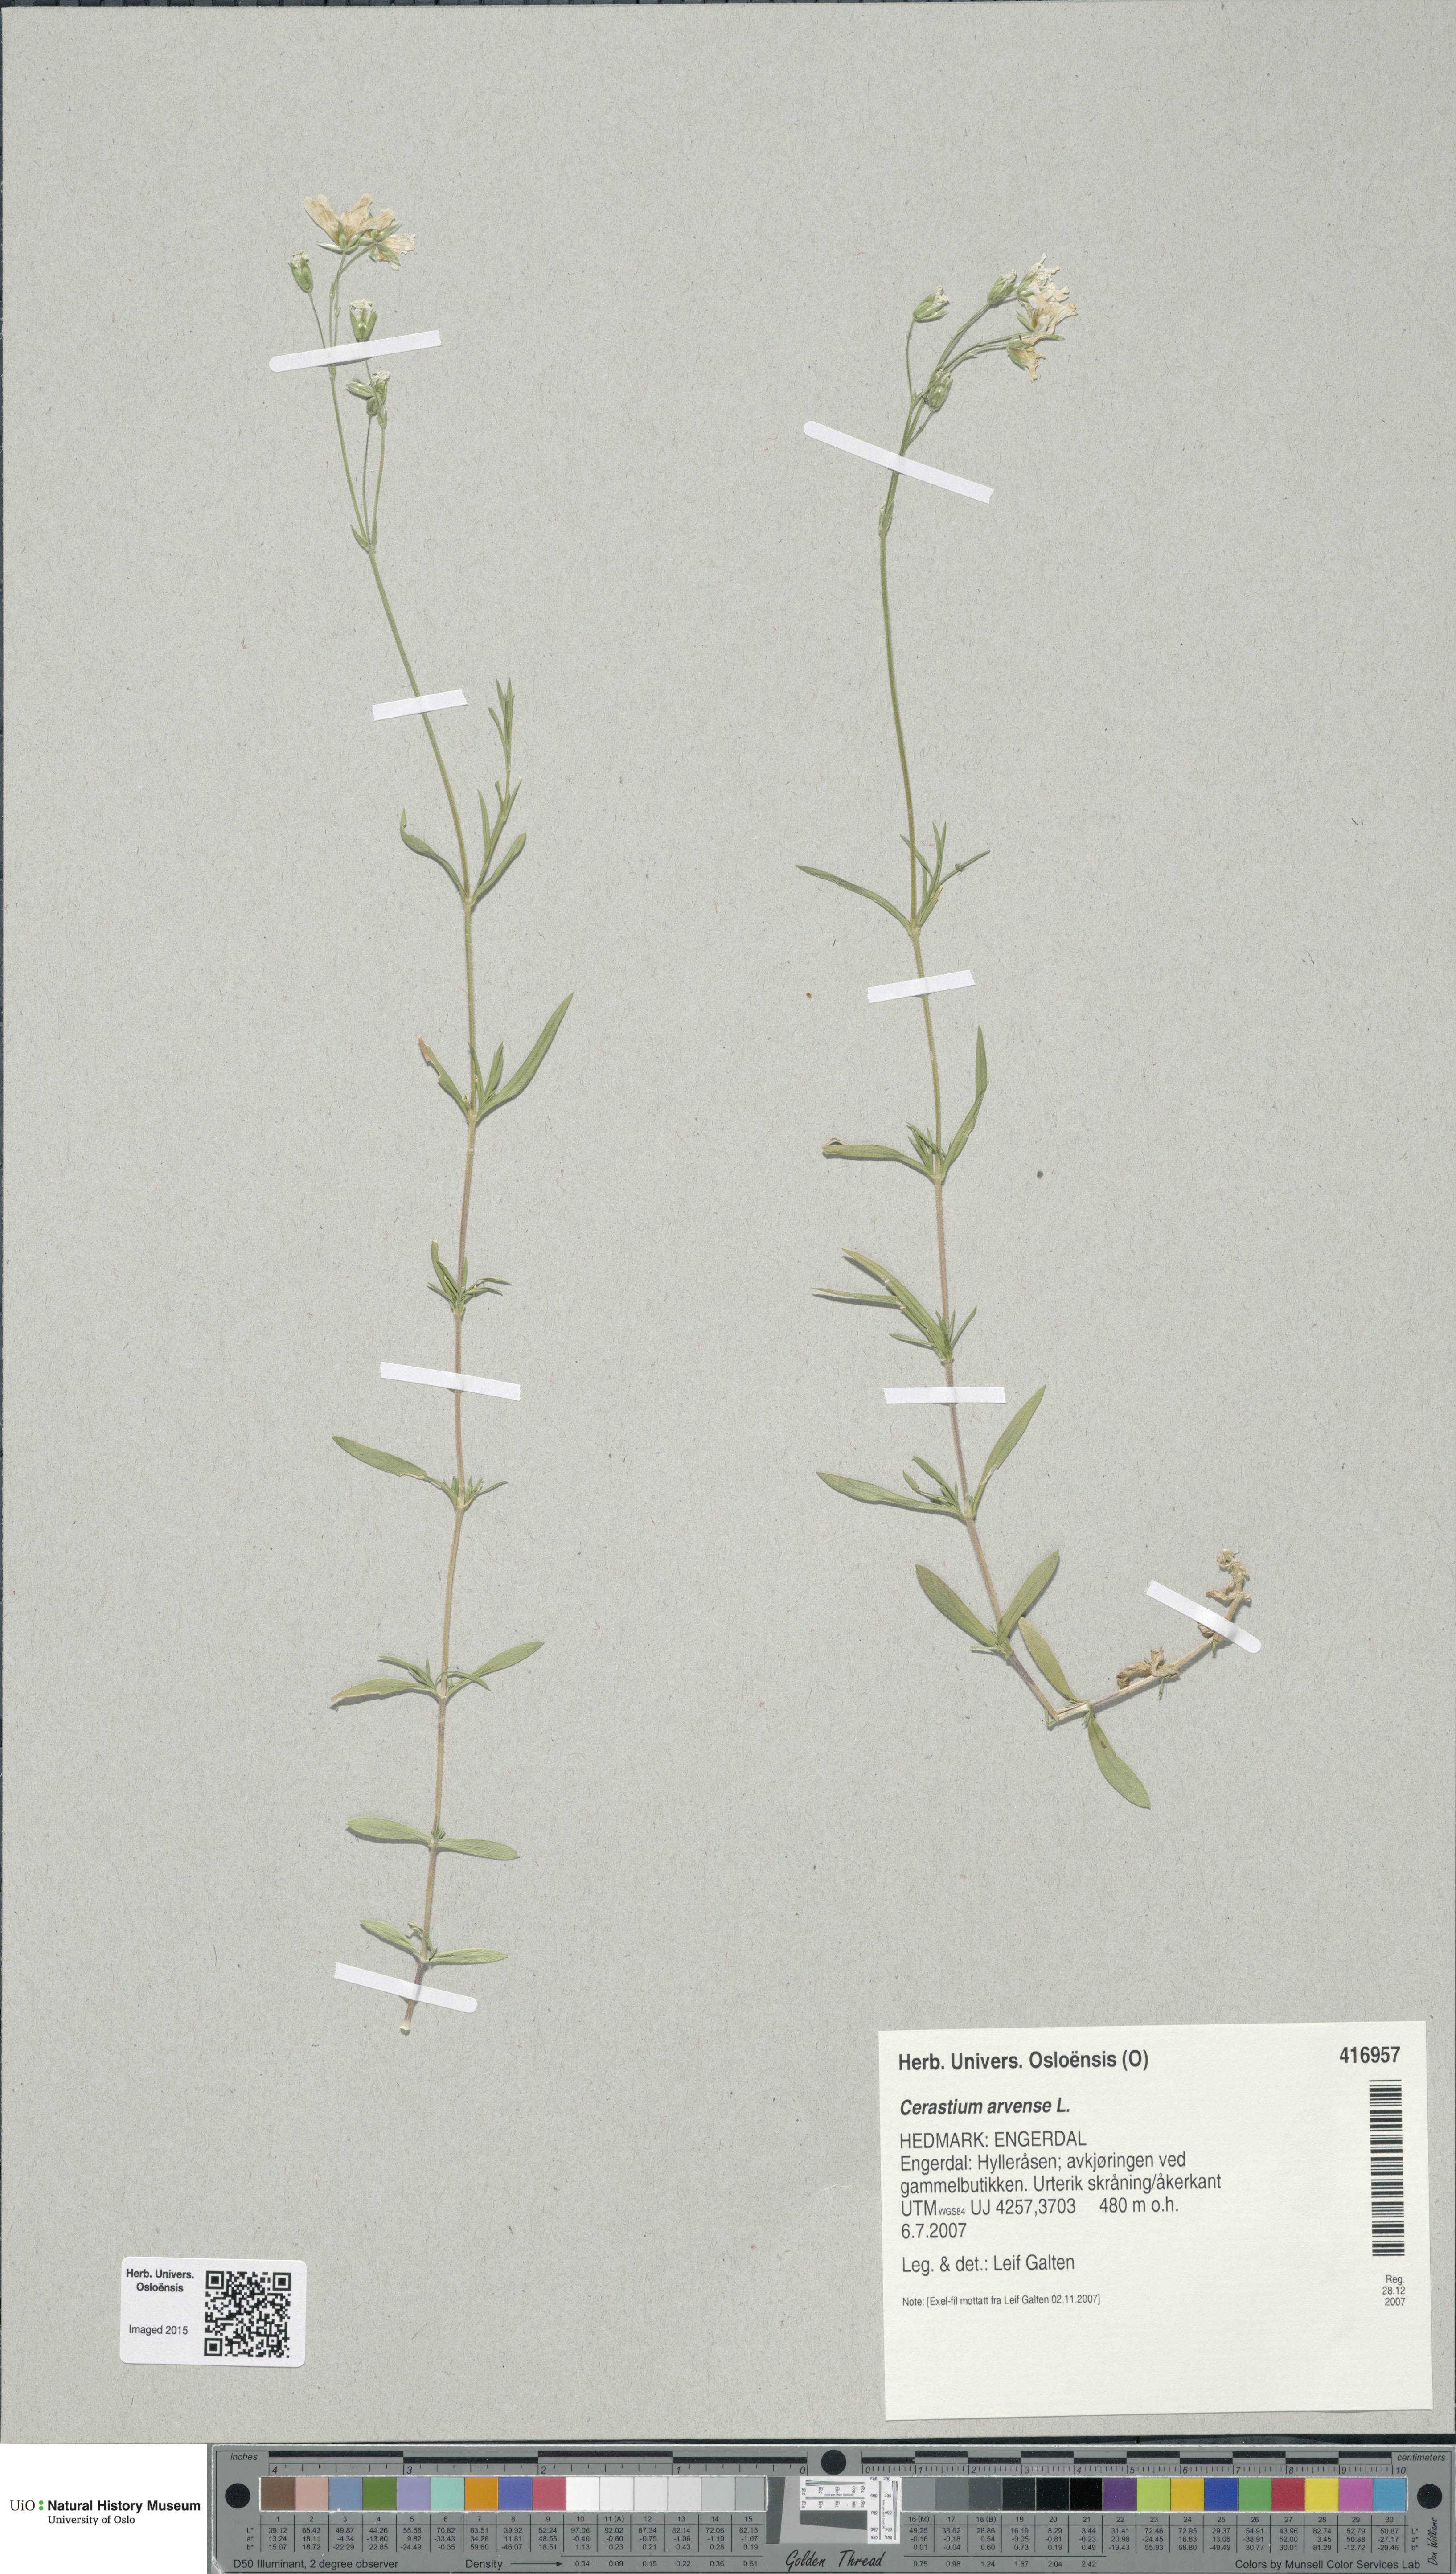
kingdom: Plantae
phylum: Tracheophyta
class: Magnoliopsida
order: Caryophyllales
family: Caryophyllaceae
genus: Cerastium
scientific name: Cerastium arvense
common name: Field mouse-ear
